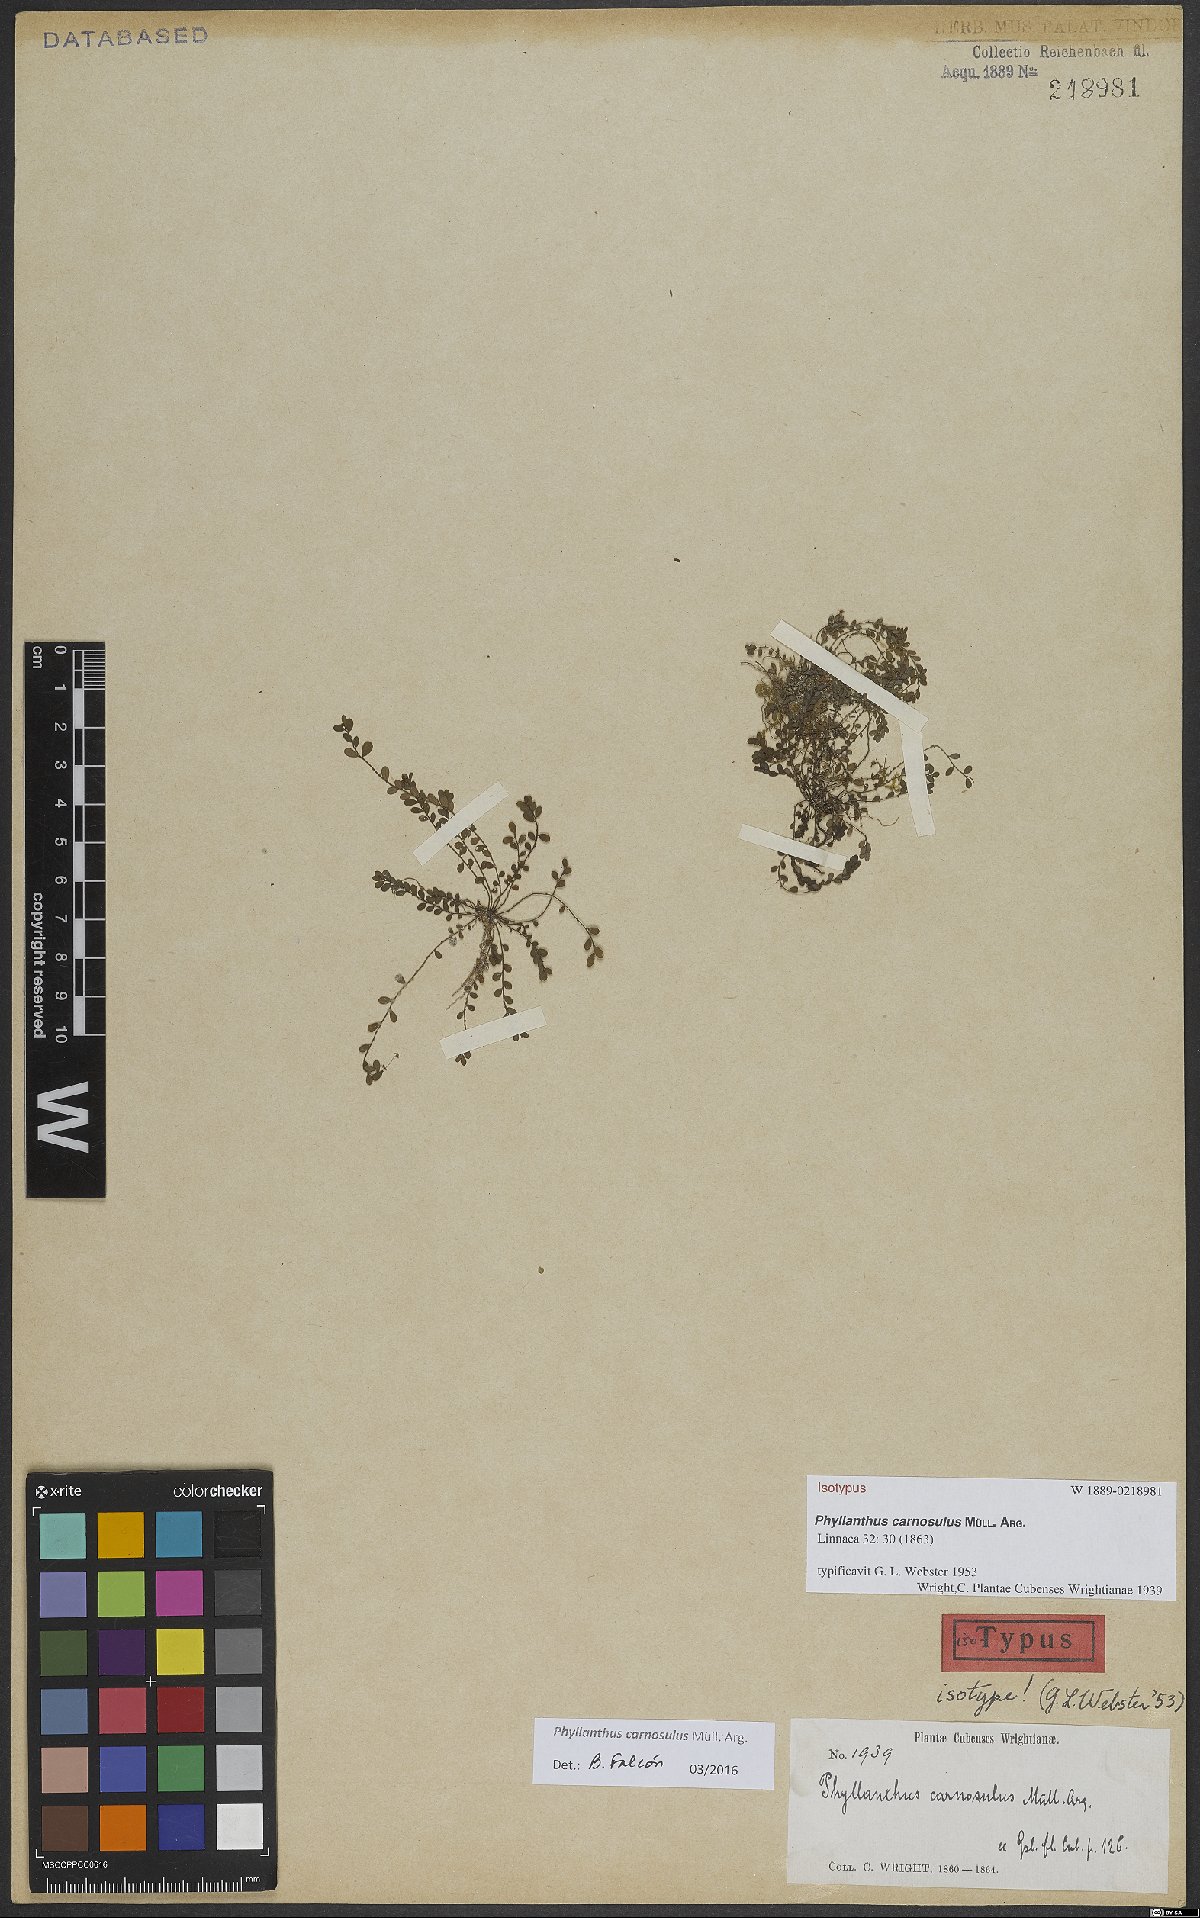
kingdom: Plantae
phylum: Tracheophyta
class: Magnoliopsida
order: Malpighiales
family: Phyllanthaceae
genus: Phyllanthus
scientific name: Phyllanthus carnosulus
